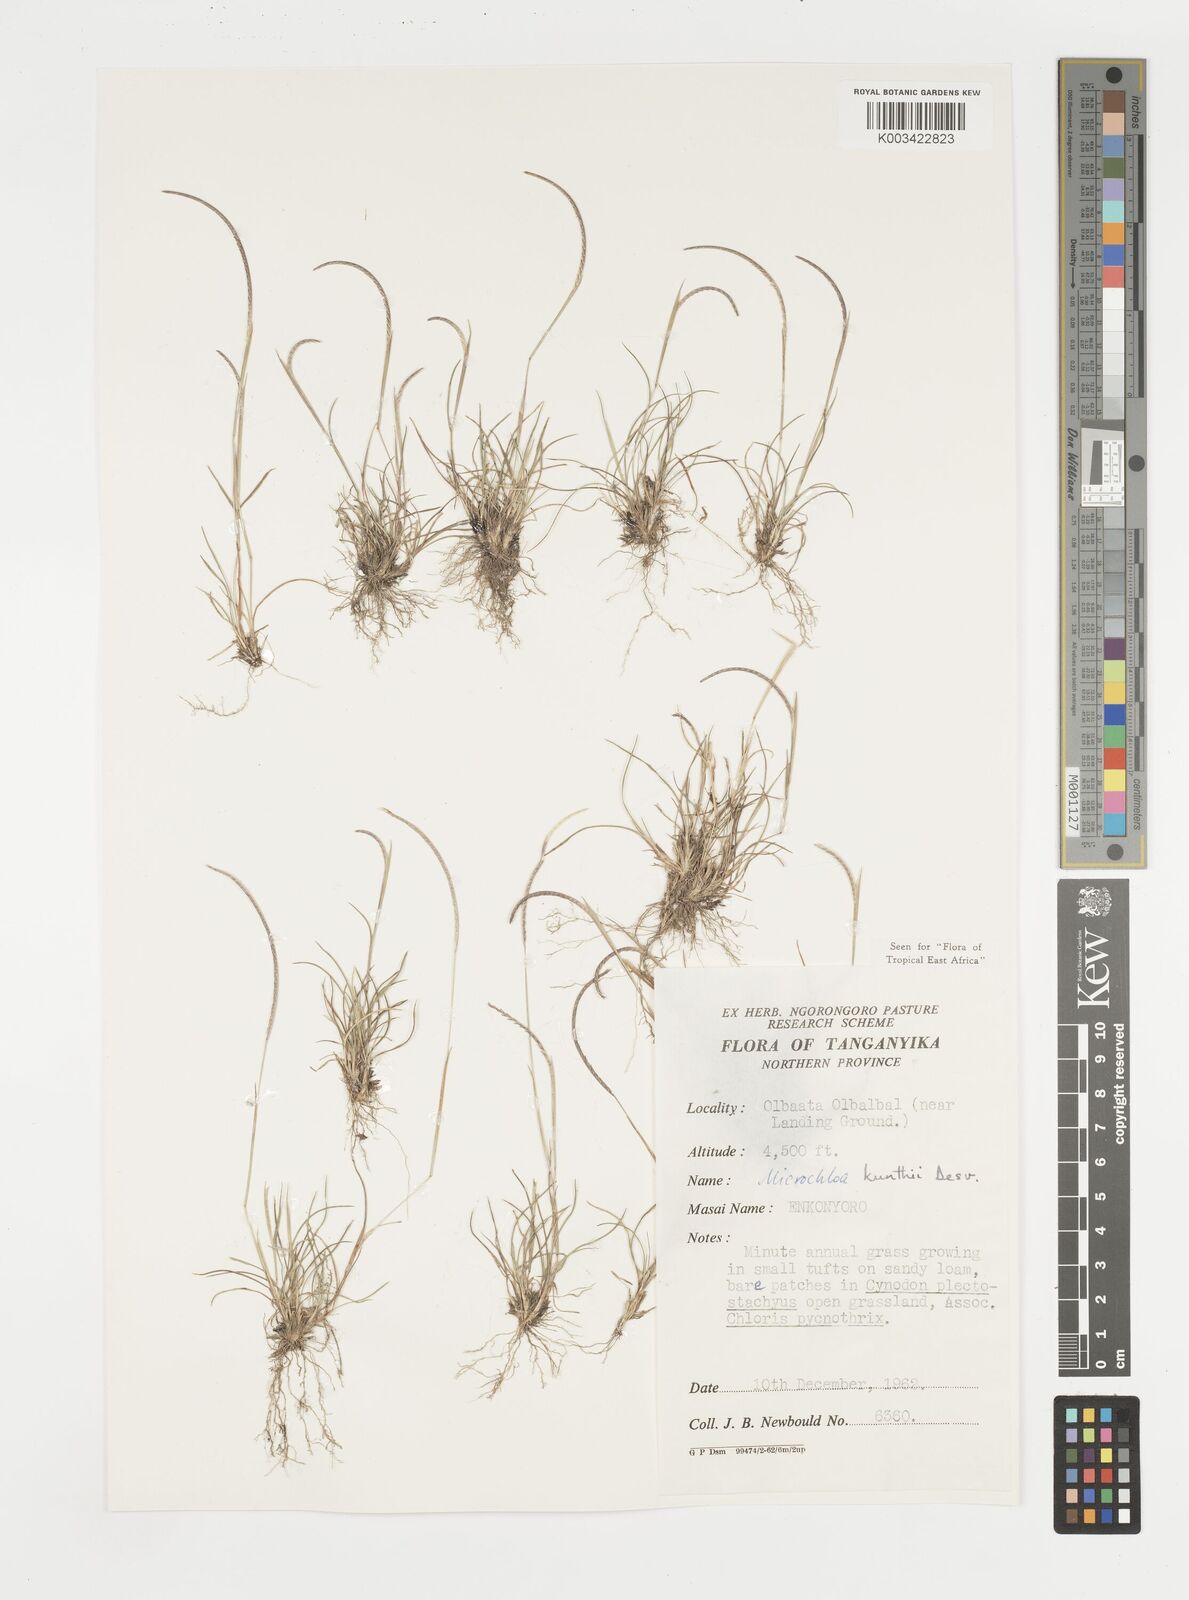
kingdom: Plantae
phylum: Tracheophyta
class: Liliopsida
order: Poales
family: Poaceae
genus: Microchloa
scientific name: Microchloa kunthii
